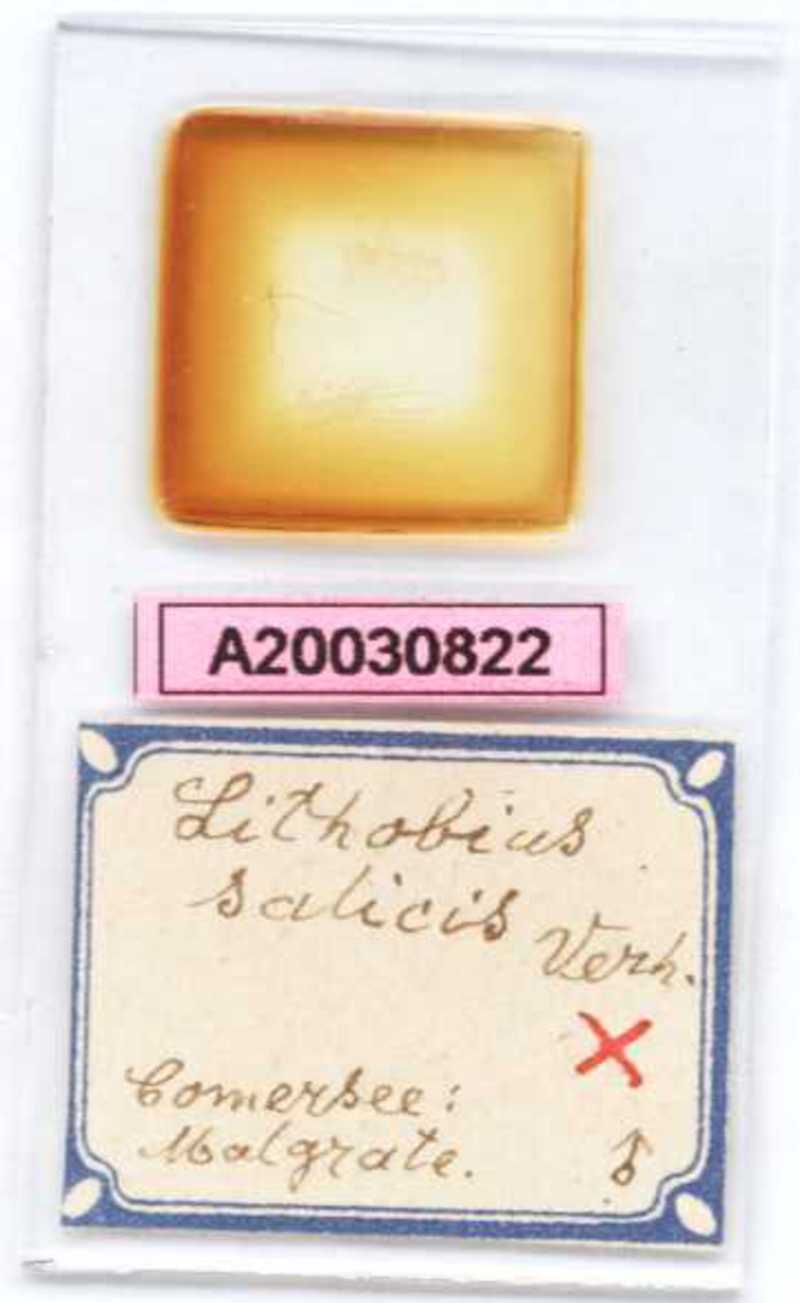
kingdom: Animalia
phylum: Arthropoda
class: Chilopoda
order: Lithobiomorpha
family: Lithobiidae
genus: Lithobius
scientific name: Lithobius salicis
